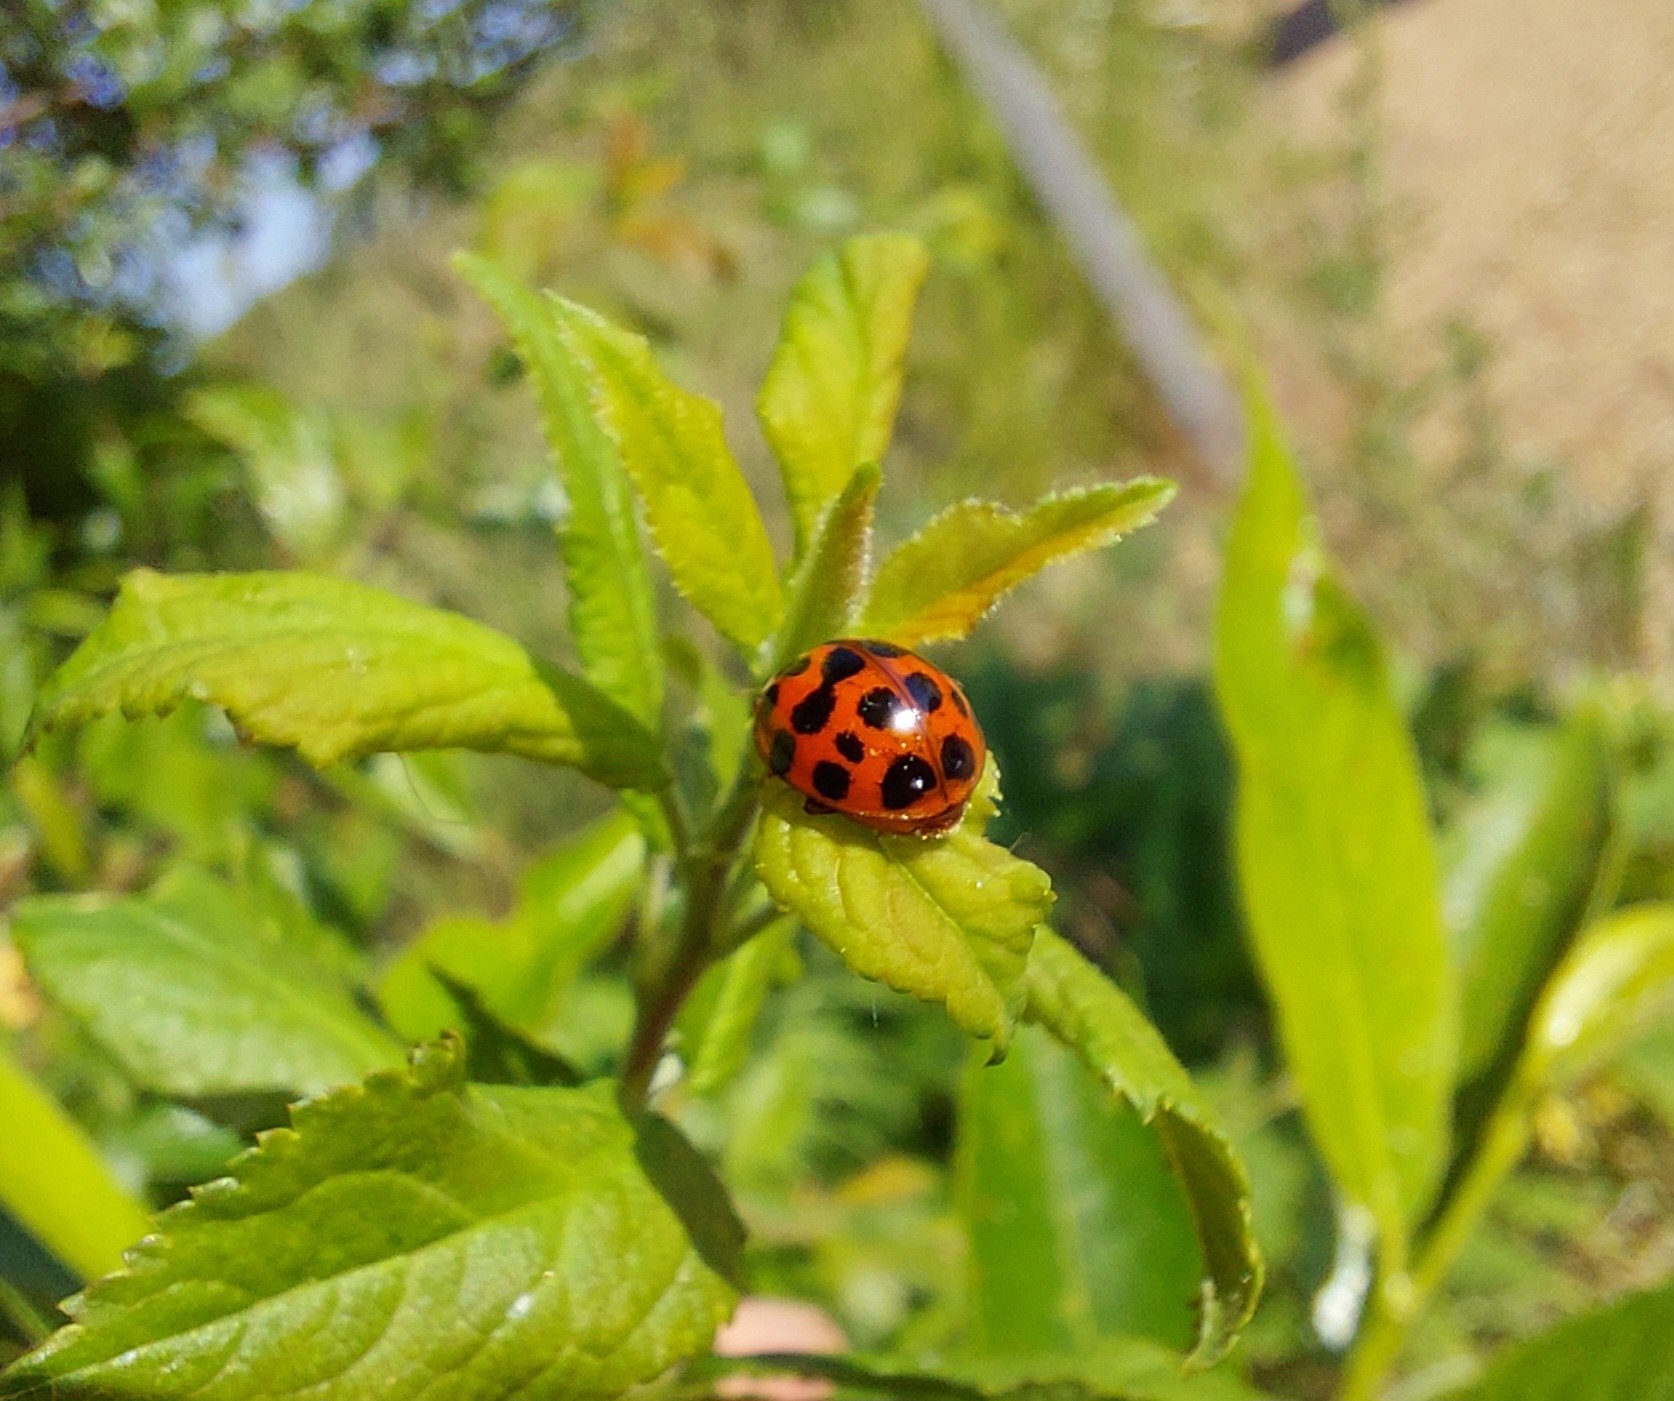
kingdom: Animalia
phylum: Arthropoda
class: Insecta
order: Coleoptera
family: Coccinellidae
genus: Harmonia
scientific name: Harmonia axyridis
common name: Harlekinmariehøne
